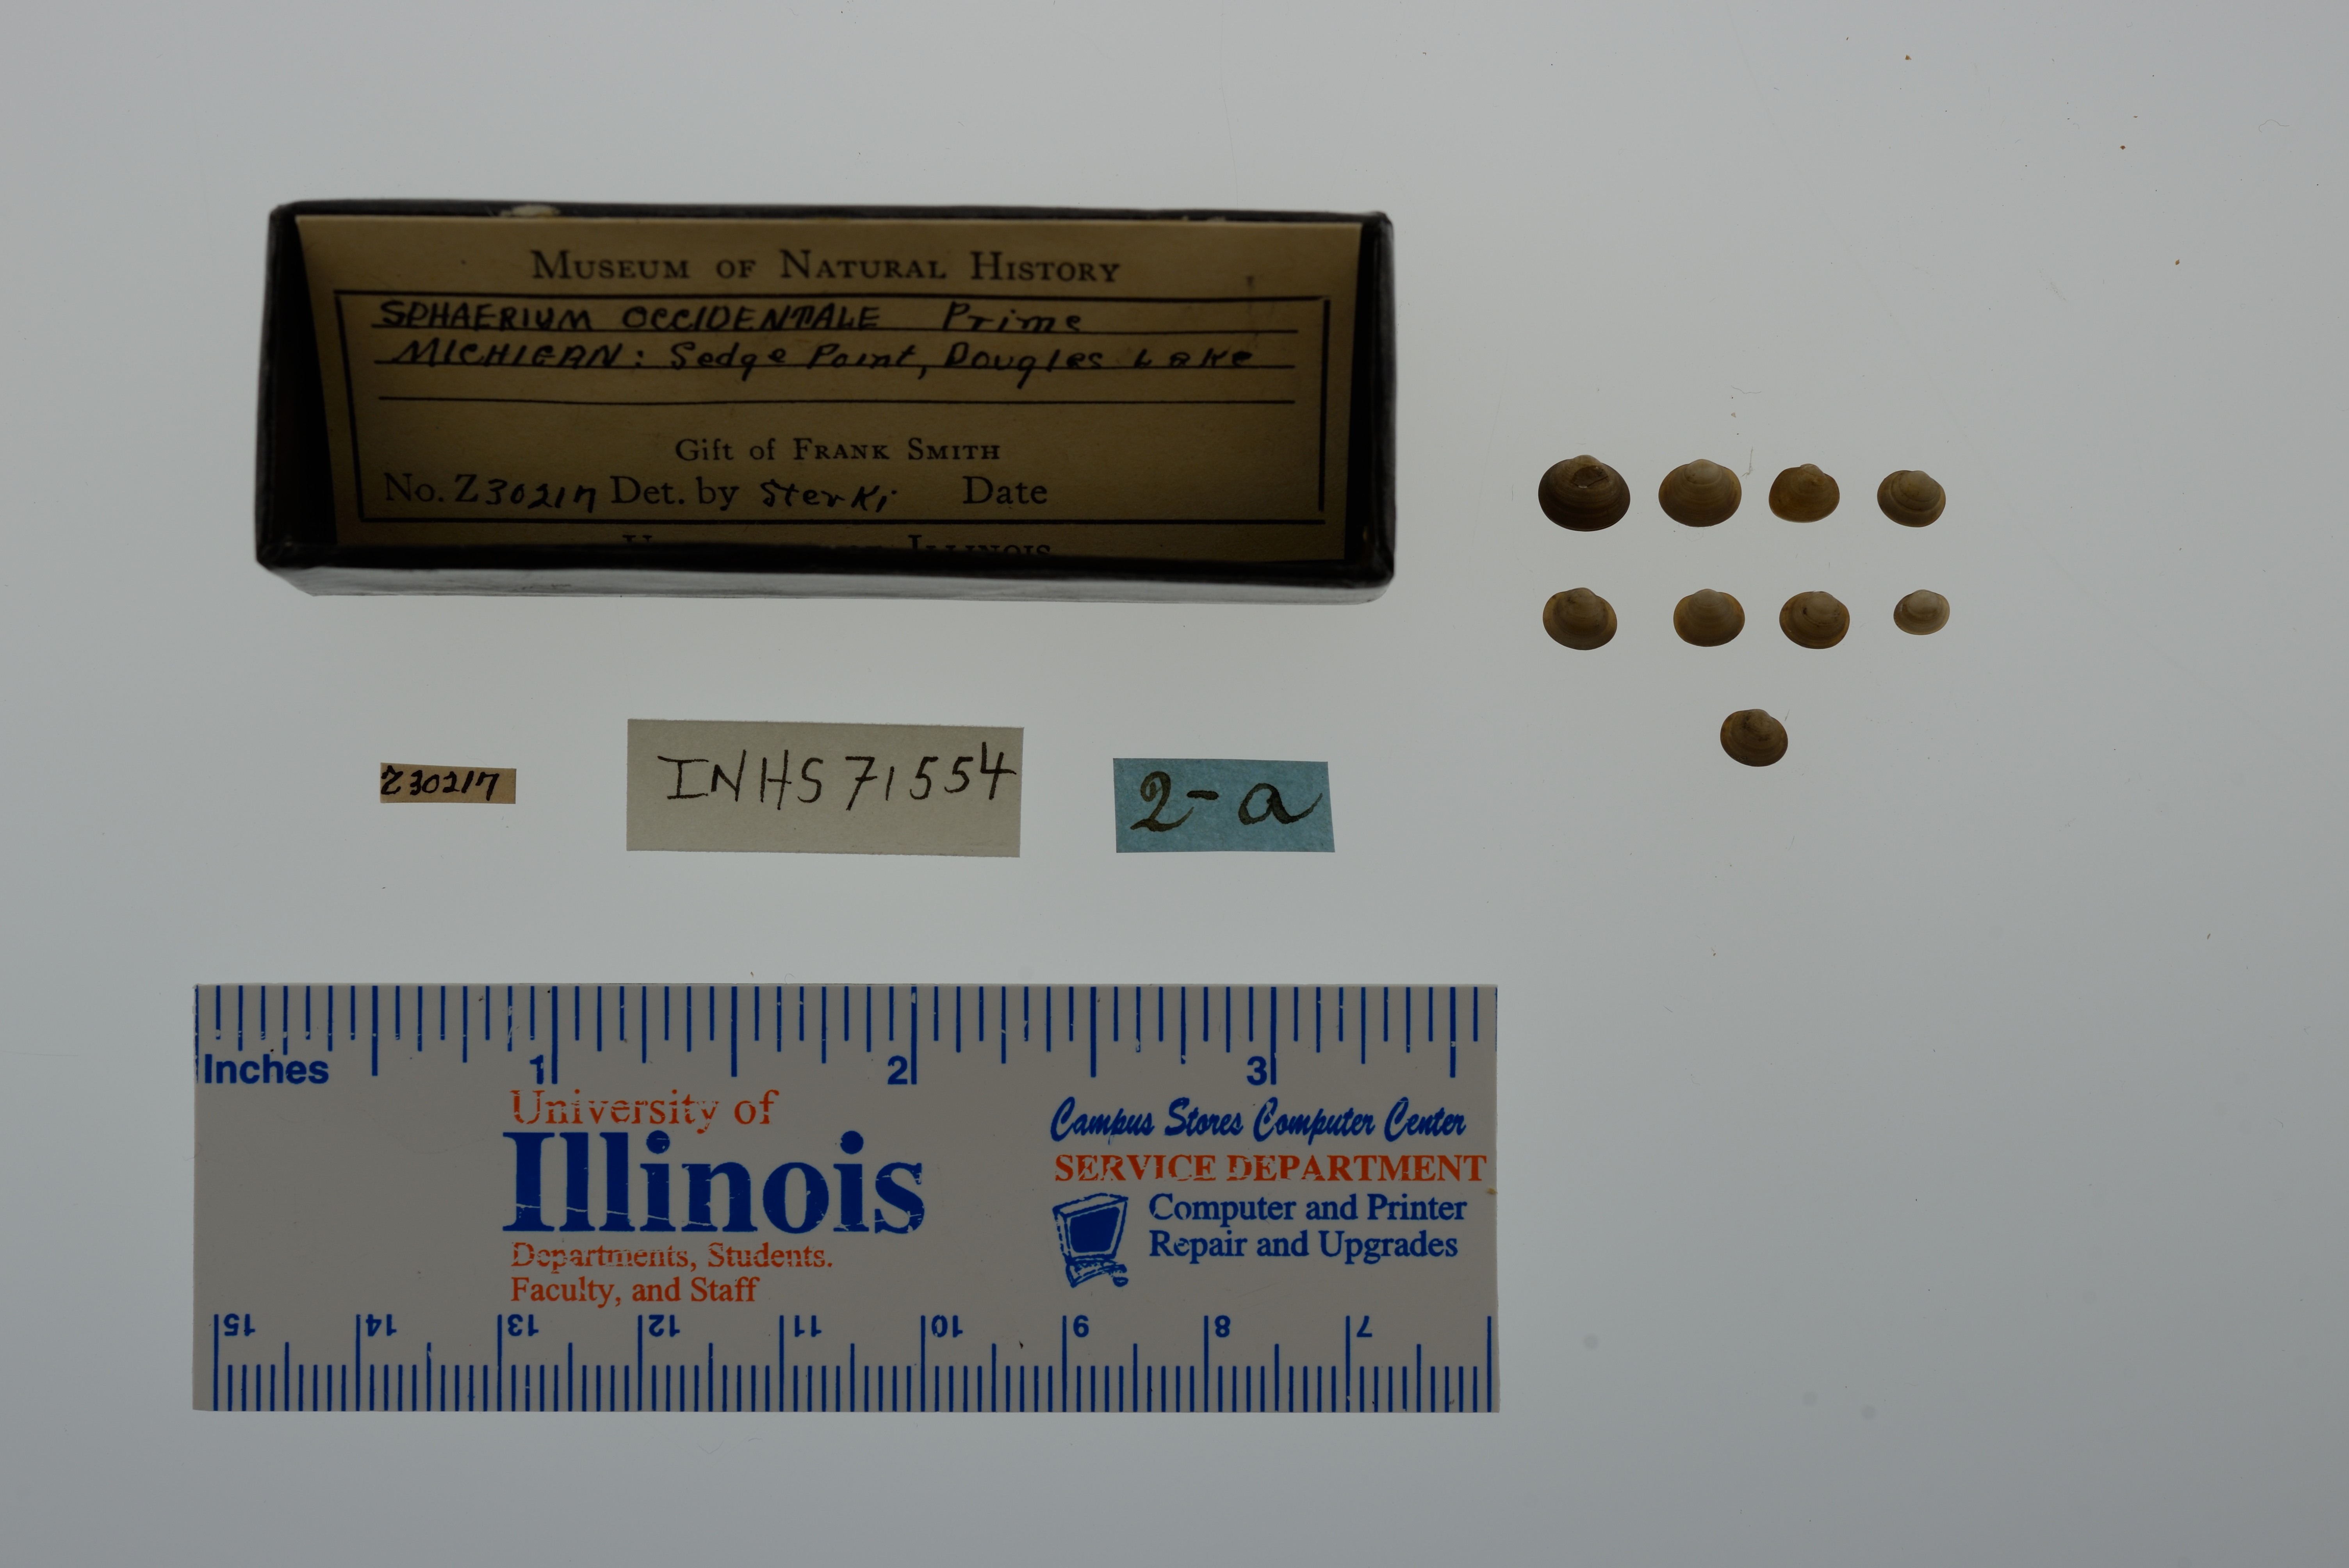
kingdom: Animalia
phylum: Mollusca
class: Bivalvia
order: Sphaeriida
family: Sphaeriidae
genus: Sphaerium
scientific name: Sphaerium occidentale
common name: Herrington fingernailclam
